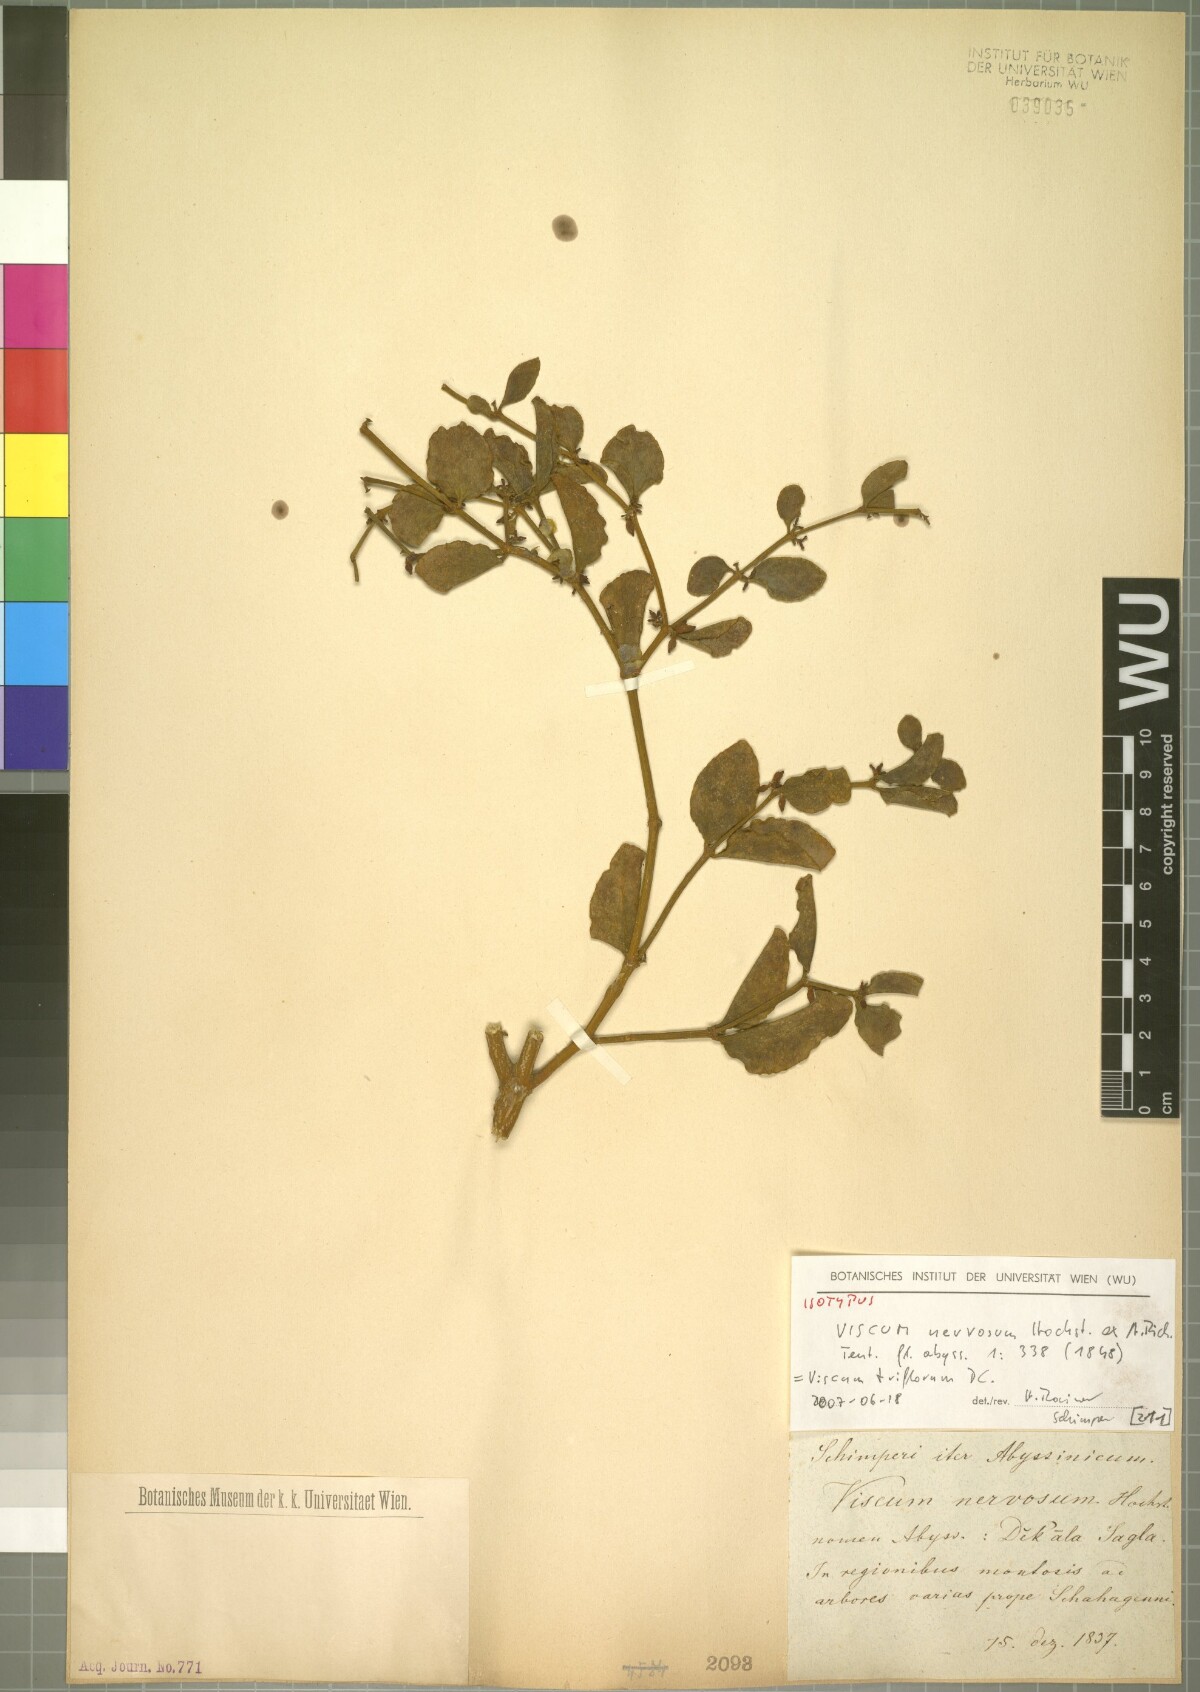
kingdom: Plantae
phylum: Tracheophyta
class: Magnoliopsida
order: Santalales
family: Viscaceae
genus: Viscum
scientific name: Viscum triflorum
